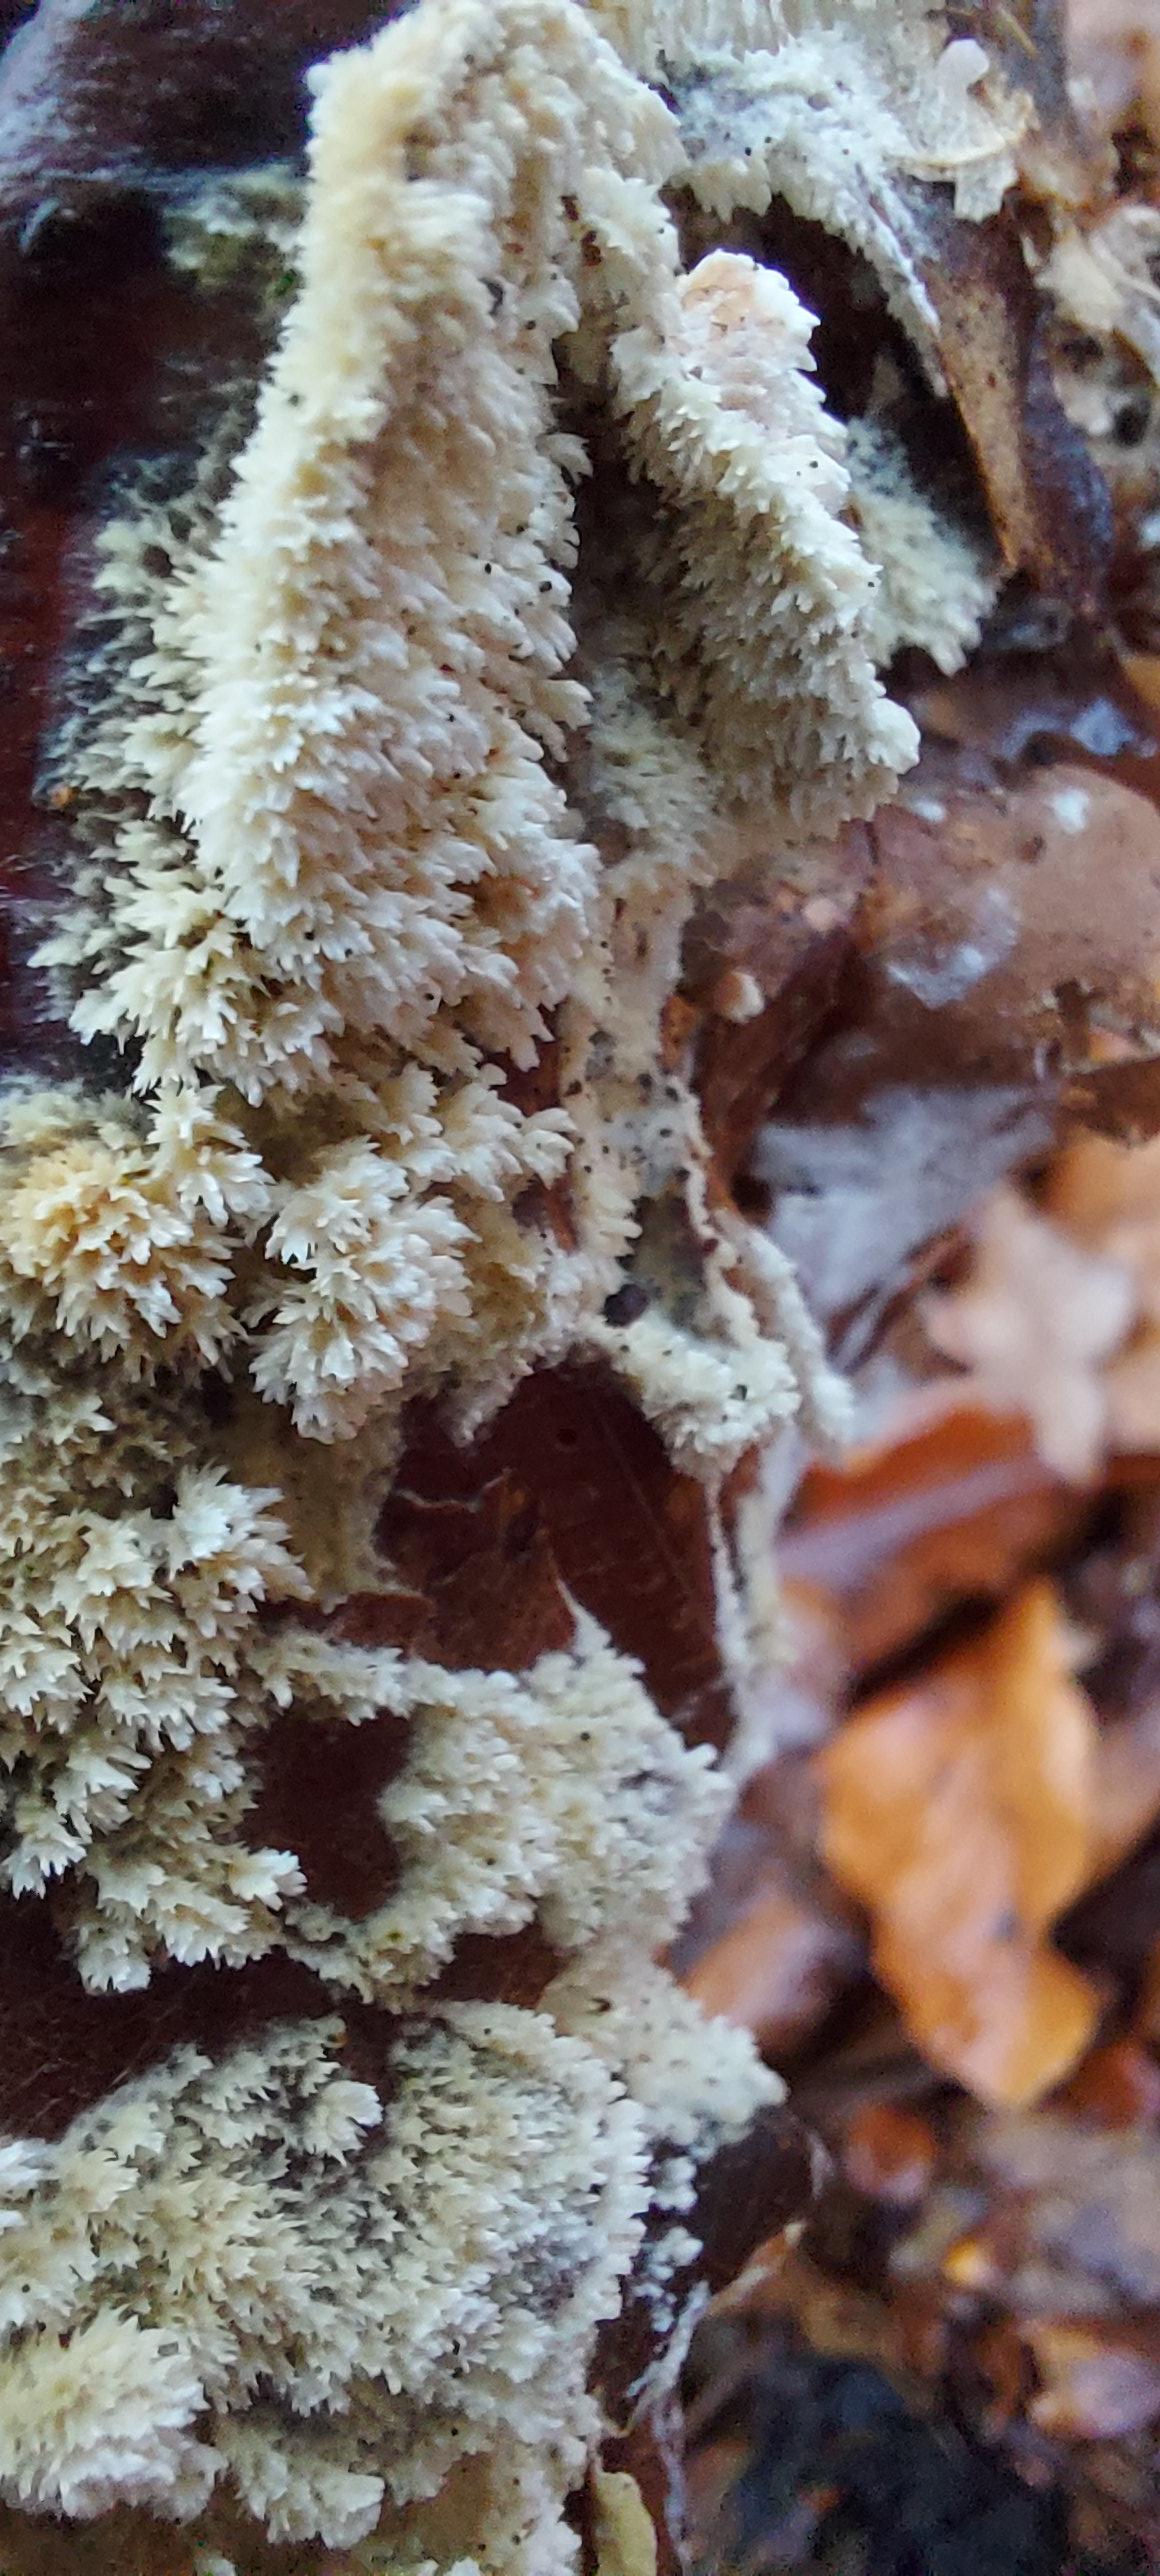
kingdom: Fungi
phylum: Basidiomycota
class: Agaricomycetes
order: Corticiales
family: Corticiaceae
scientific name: Corticiaceae
